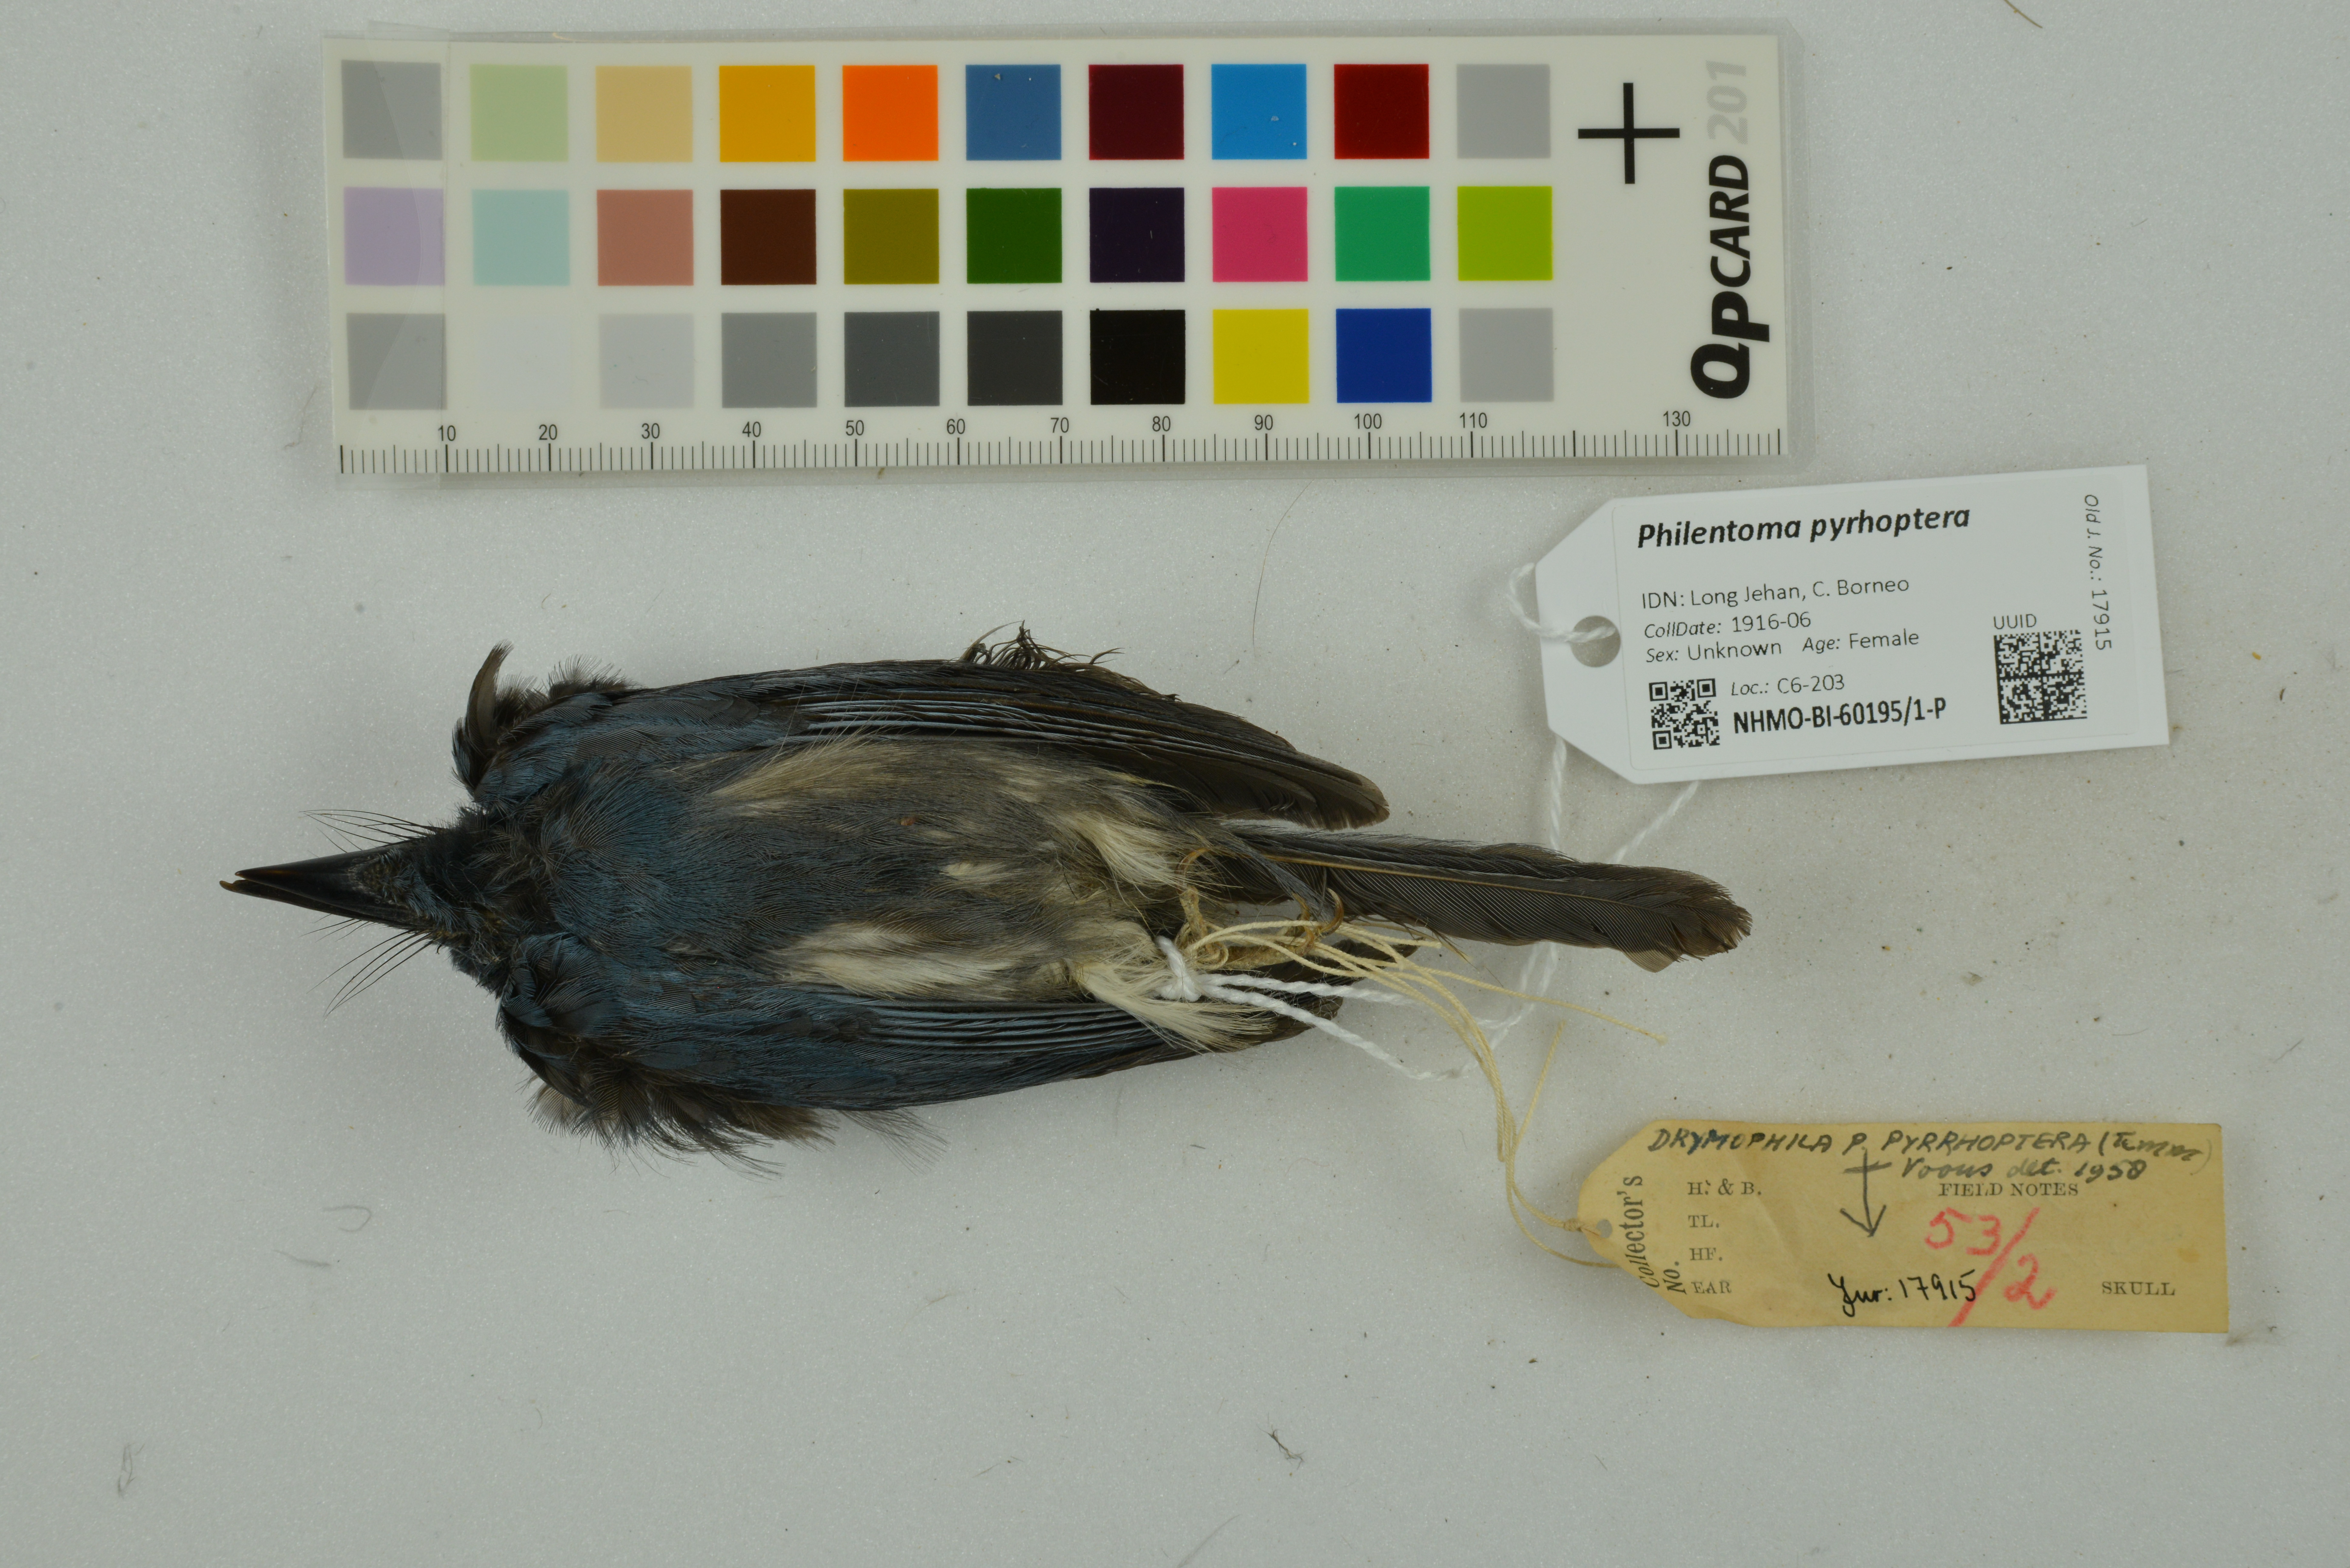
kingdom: Animalia
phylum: Chordata
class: Aves
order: Passeriformes
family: Tephrodornithidae
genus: Philentoma
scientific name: Philentoma pyrhoptera
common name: Rufous-winged philentoma
